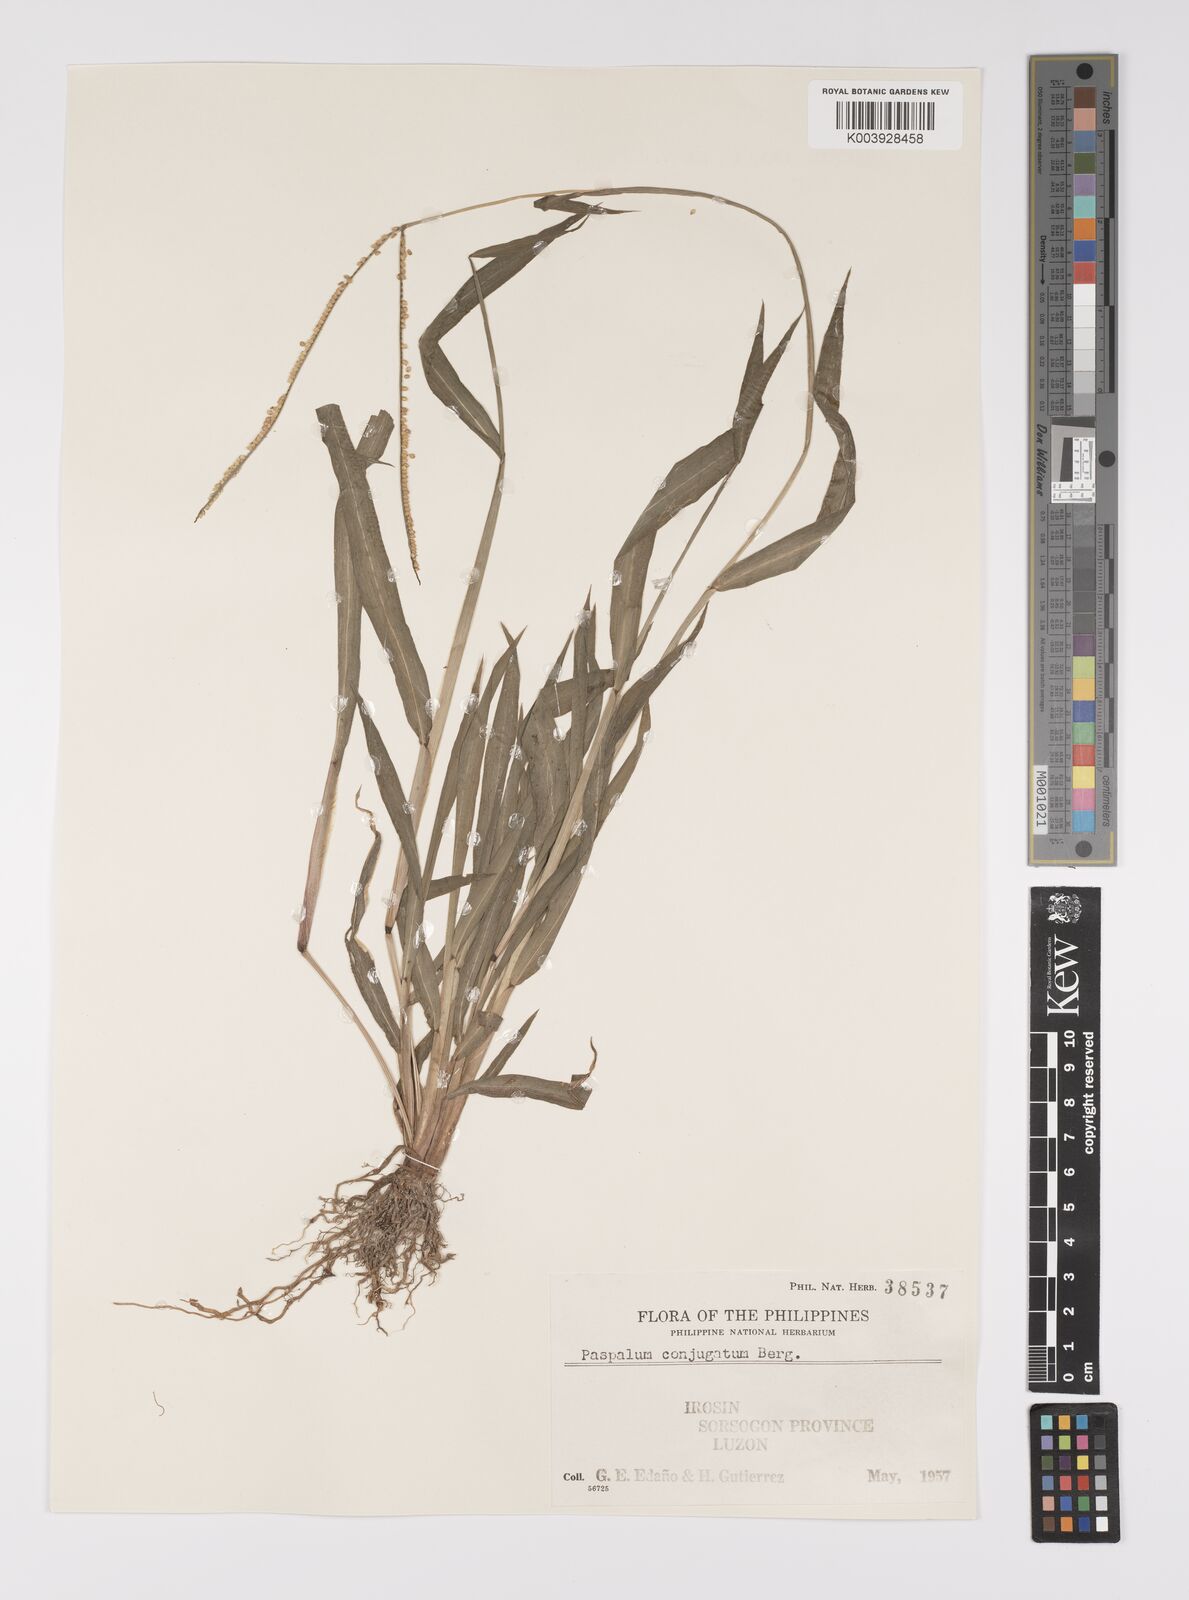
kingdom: Plantae
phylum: Tracheophyta
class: Liliopsida
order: Poales
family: Poaceae
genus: Paspalum
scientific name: Paspalum conjugatum
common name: Hilograss
